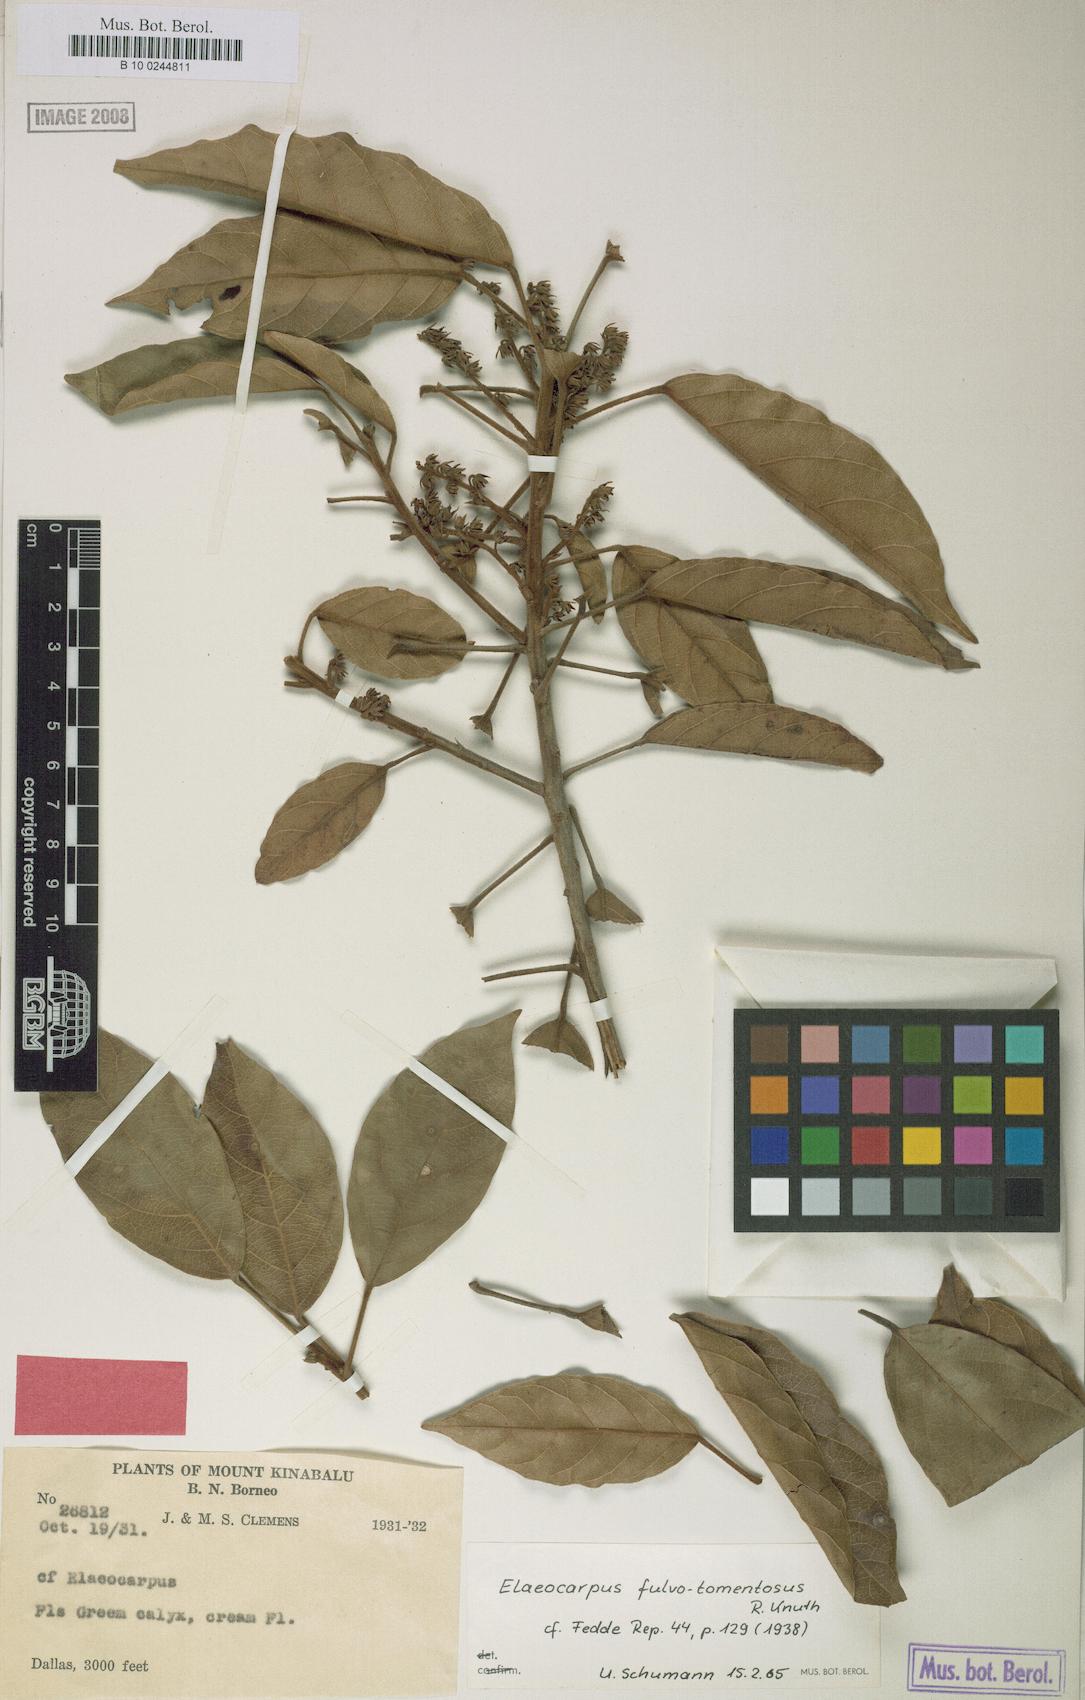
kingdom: Plantae
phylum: Tracheophyta
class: Magnoliopsida
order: Oxalidales
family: Elaeocarpaceae
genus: Elaeocarpus
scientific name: Elaeocarpus ferrugineus
